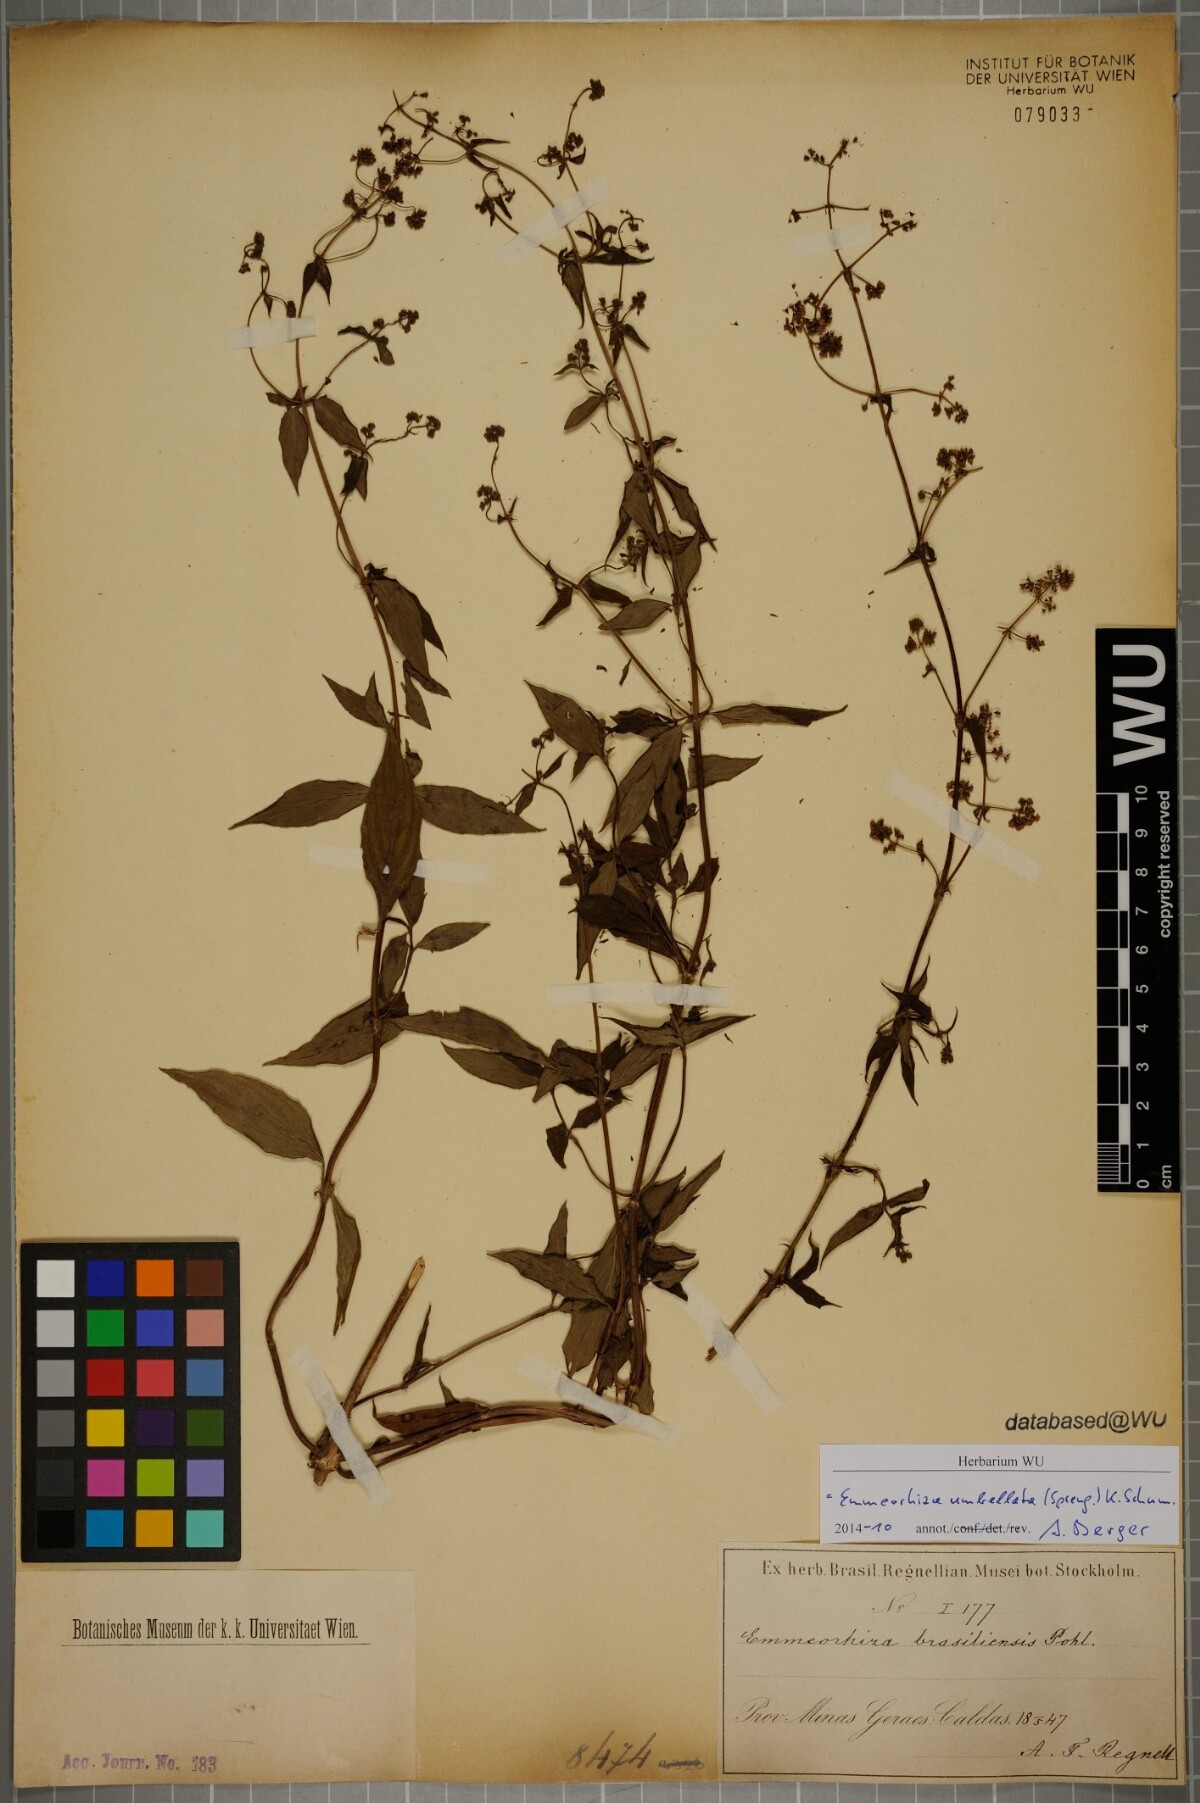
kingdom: Plantae
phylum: Tracheophyta
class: Magnoliopsida
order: Gentianales
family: Rubiaceae
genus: Emmeorhiza
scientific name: Emmeorhiza umbellata
